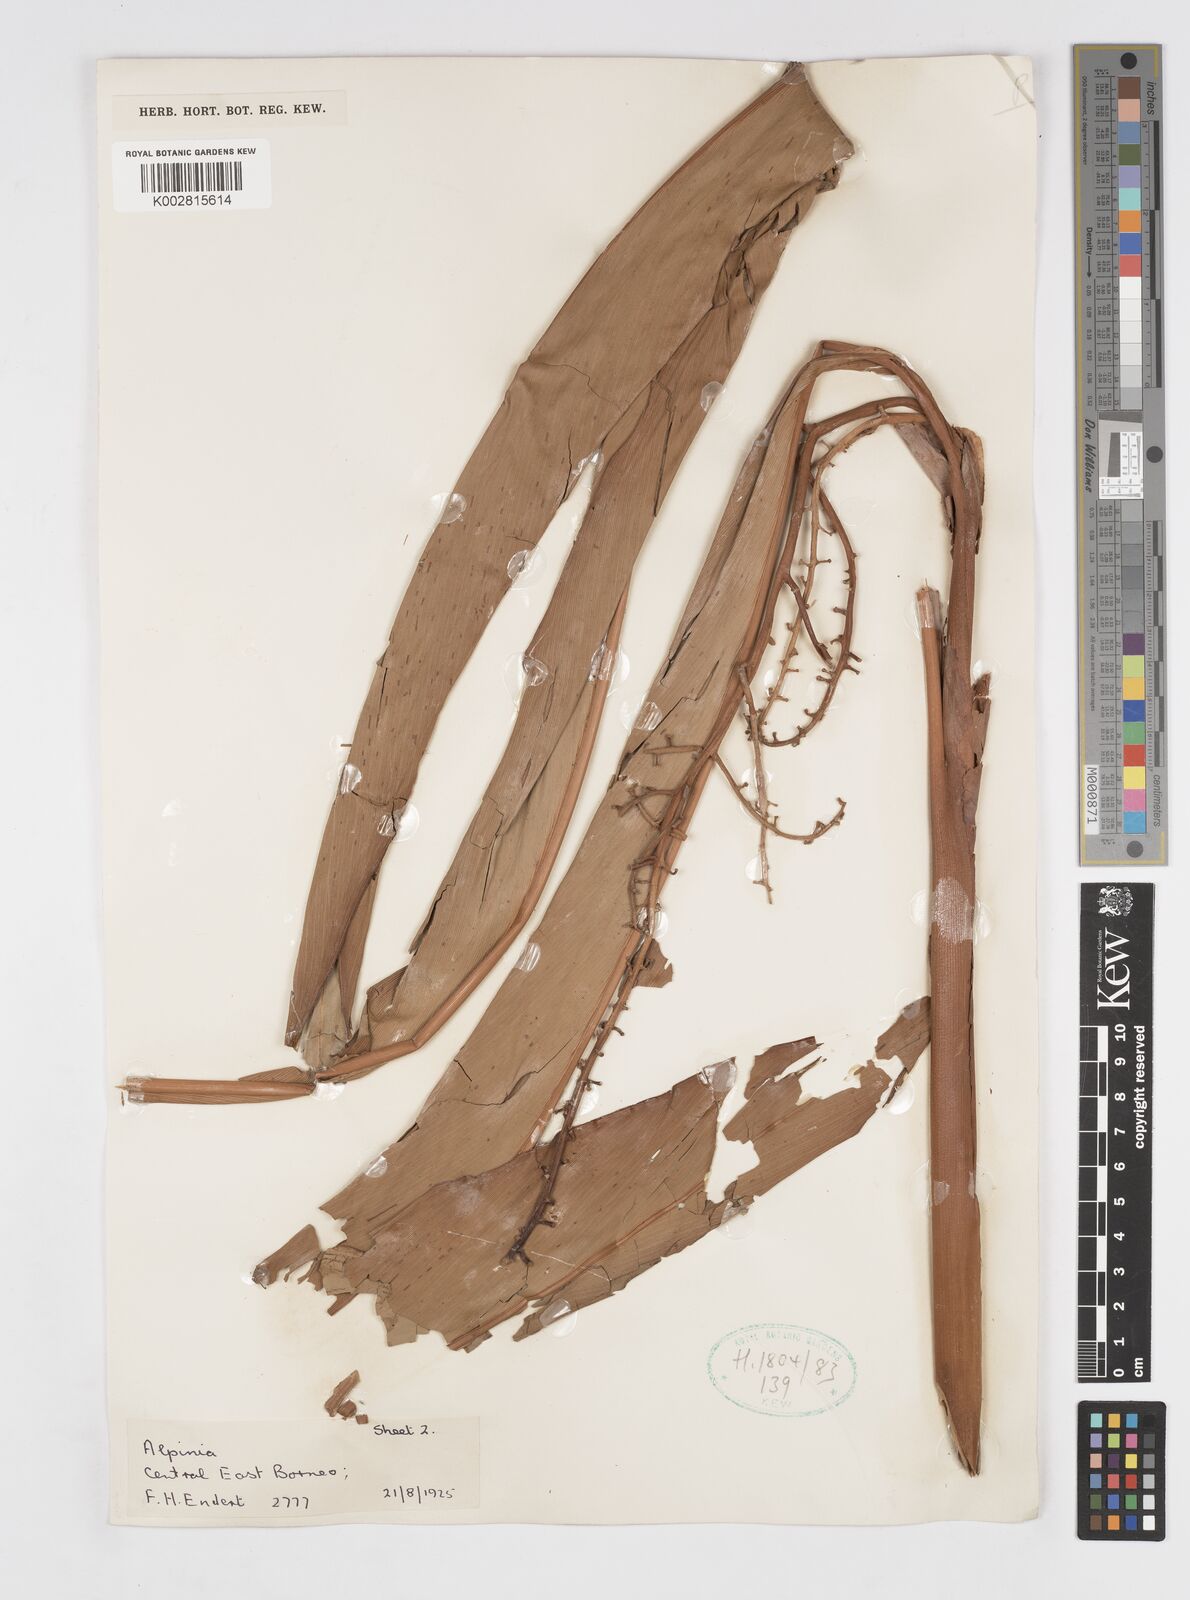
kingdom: Plantae
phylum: Tracheophyta
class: Liliopsida
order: Zingiberales
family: Zingiberaceae
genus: Alpinia
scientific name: Alpinia ligulata
